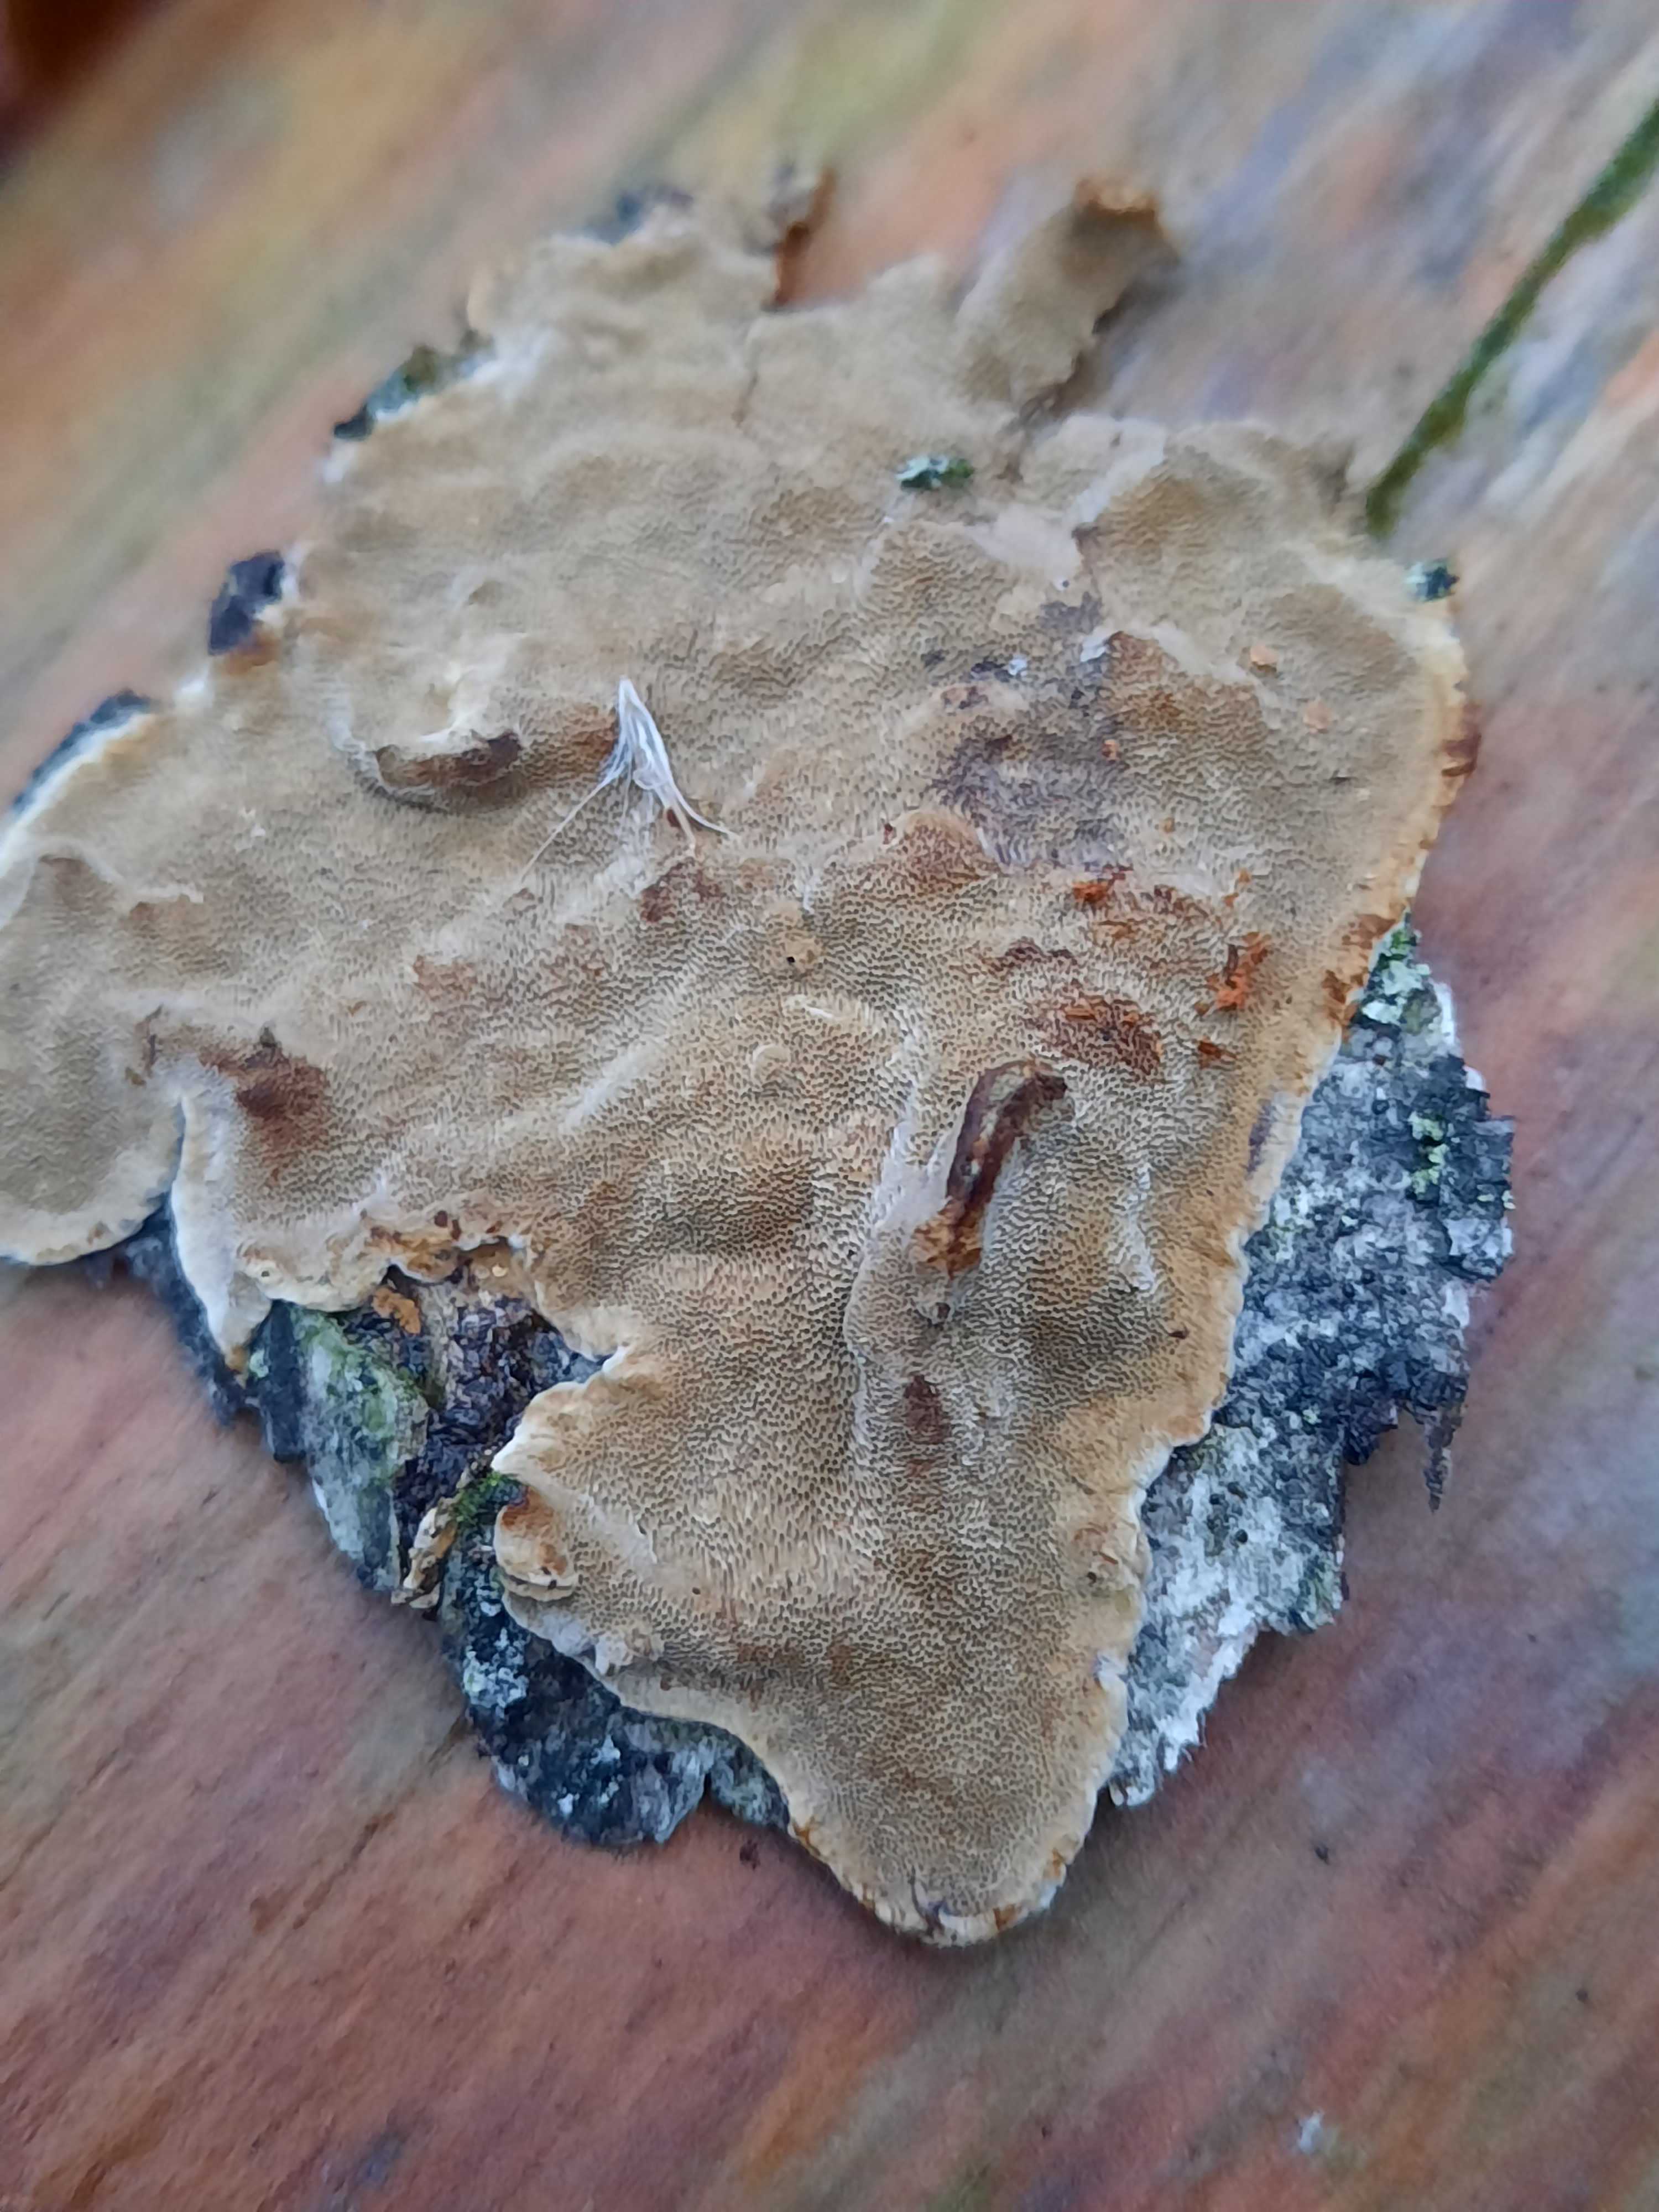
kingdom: Fungi
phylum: Basidiomycota
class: Agaricomycetes
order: Hymenochaetales
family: Hymenochaetaceae
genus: Phellinus
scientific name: Phellinus laevigatus
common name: glat ildporesvamp
